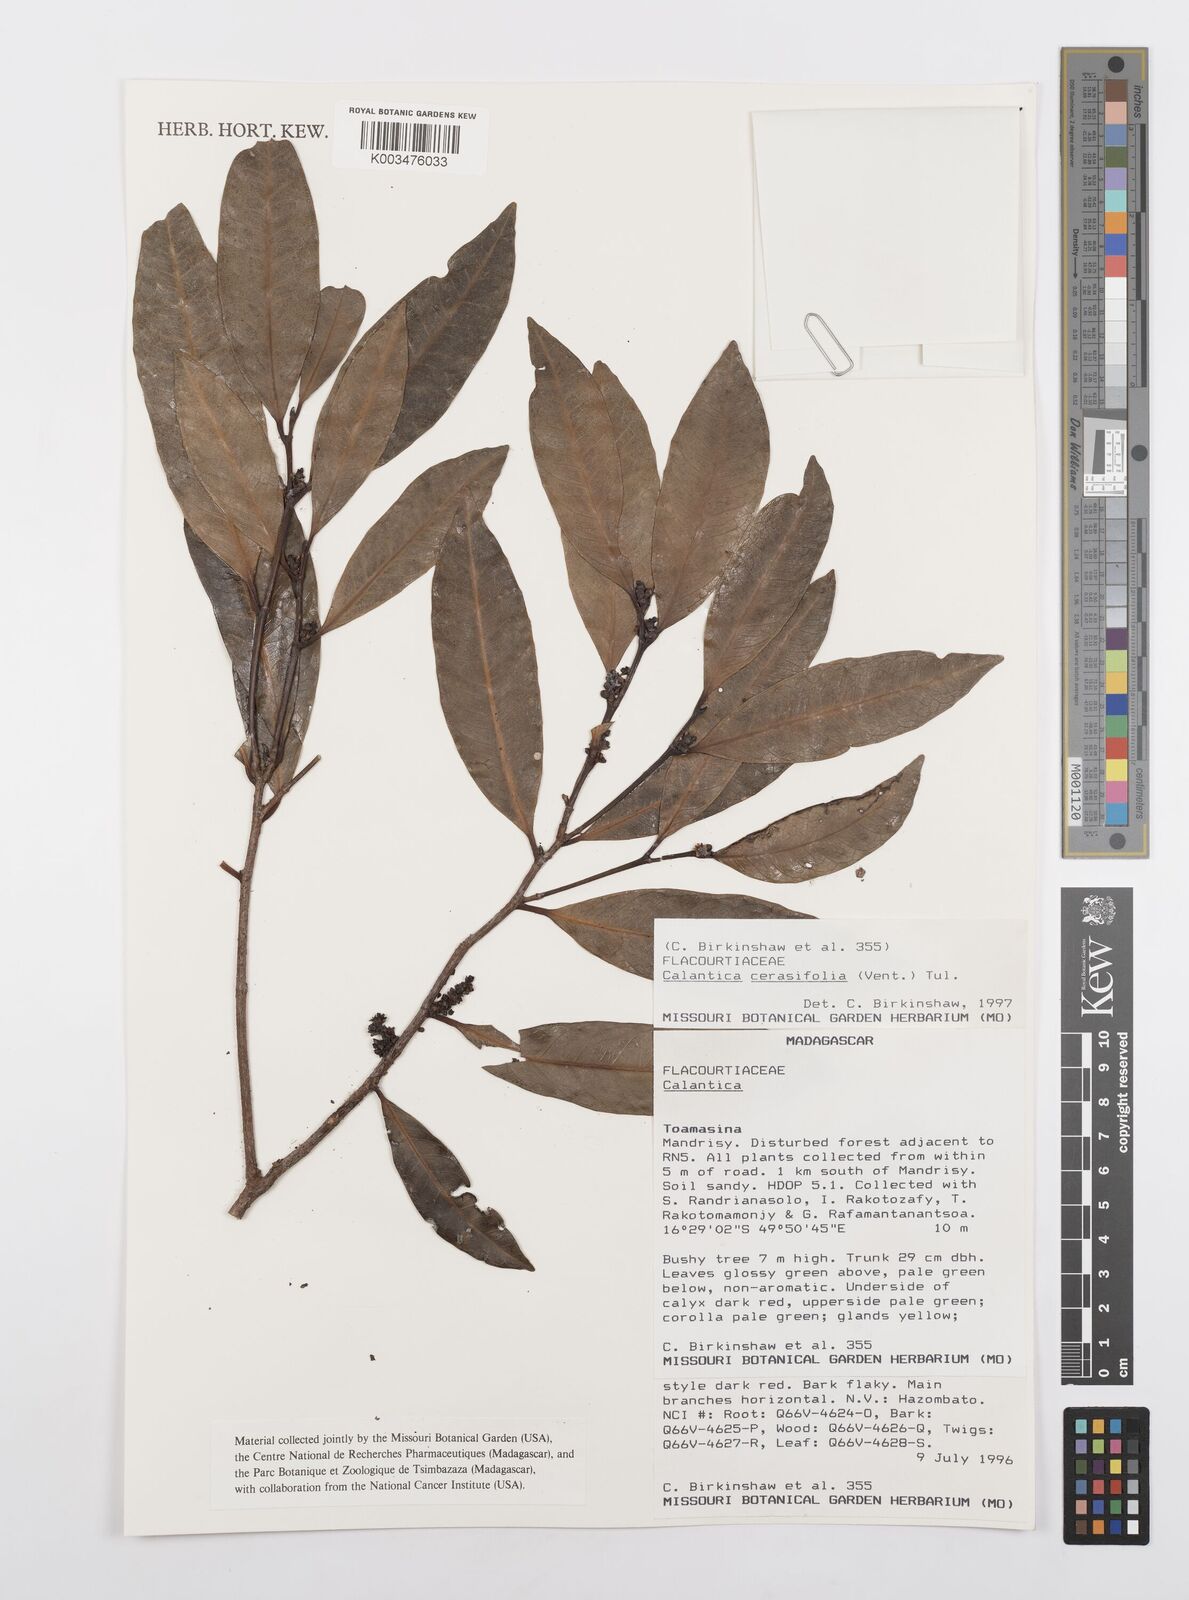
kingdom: Plantae
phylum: Tracheophyta
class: Magnoliopsida
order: Malpighiales
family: Salicaceae
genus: Calantica
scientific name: Calantica cerasifolia
